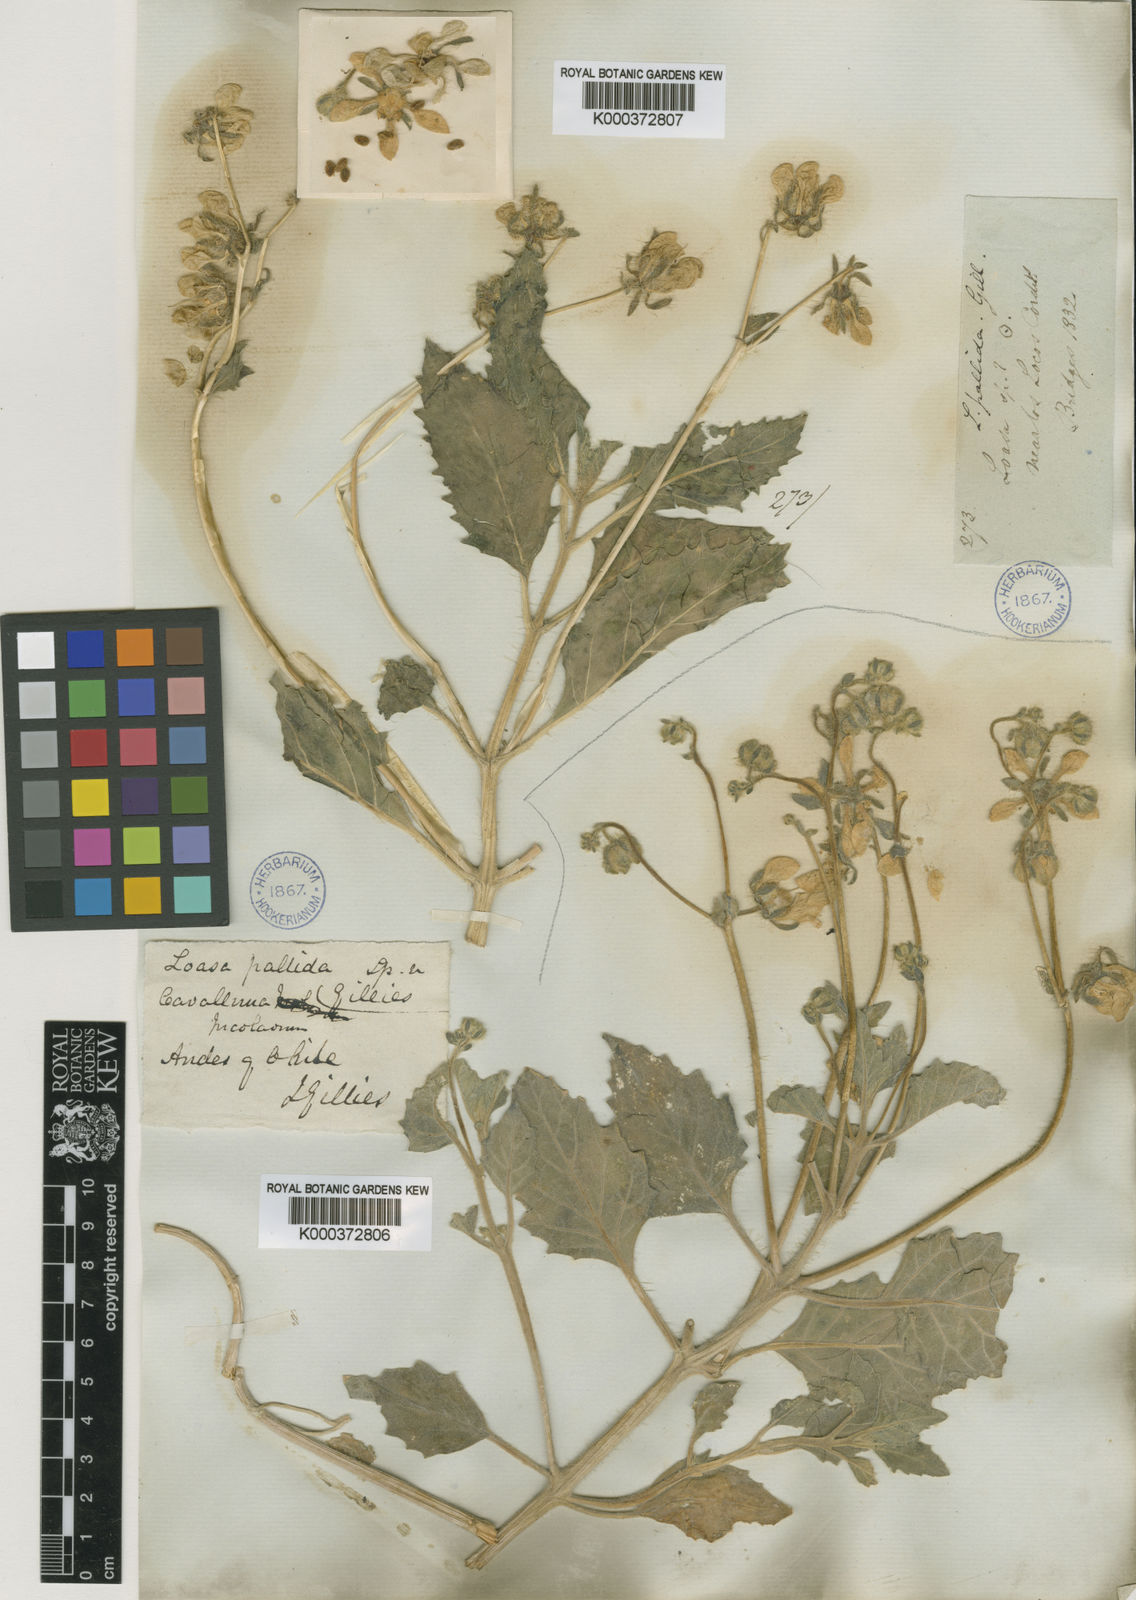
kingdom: Plantae
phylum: Tracheophyta
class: Magnoliopsida
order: Cornales
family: Loasaceae
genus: Loasa
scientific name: Loasa pallida
